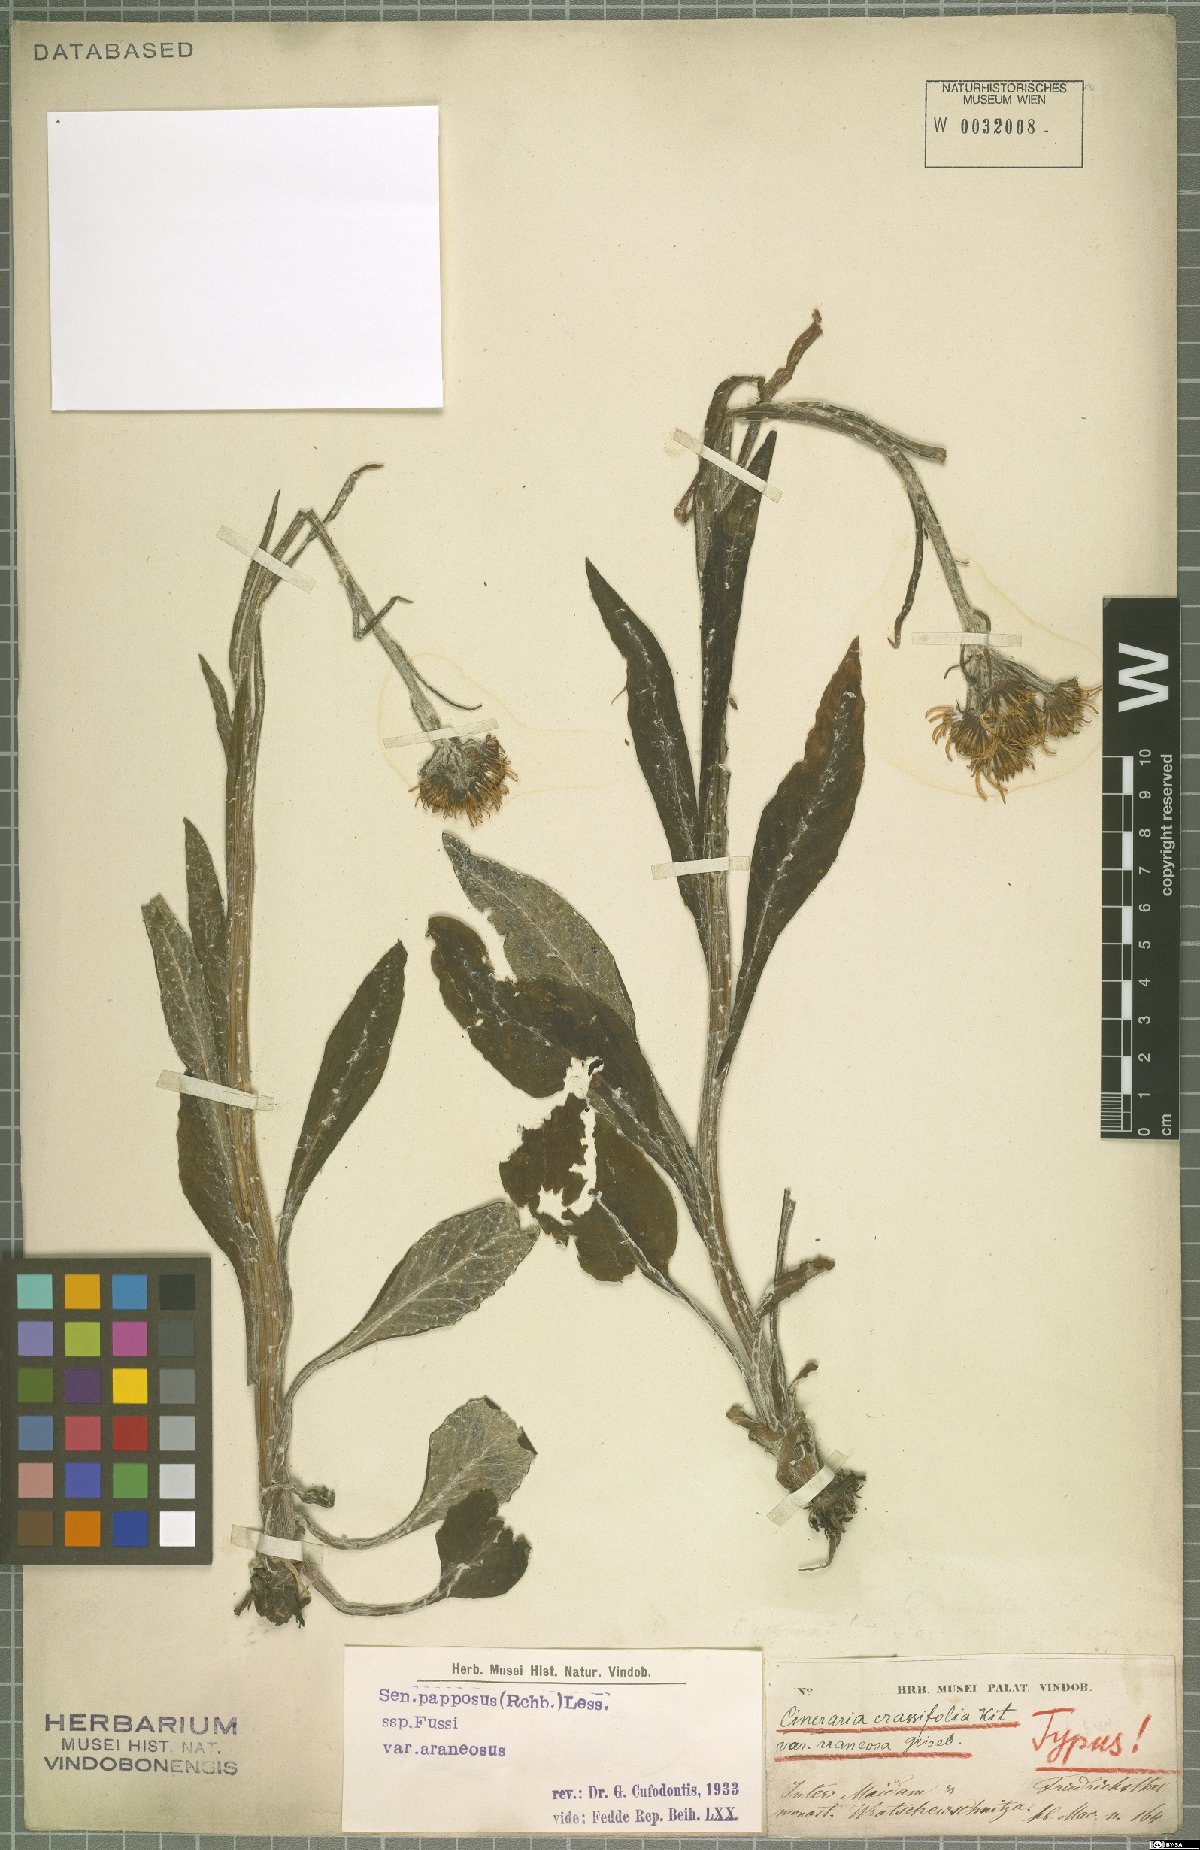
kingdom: Plantae
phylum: Tracheophyta
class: Magnoliopsida
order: Asterales
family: Asteraceae
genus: Tephroseris
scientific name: Tephroseris papposa
